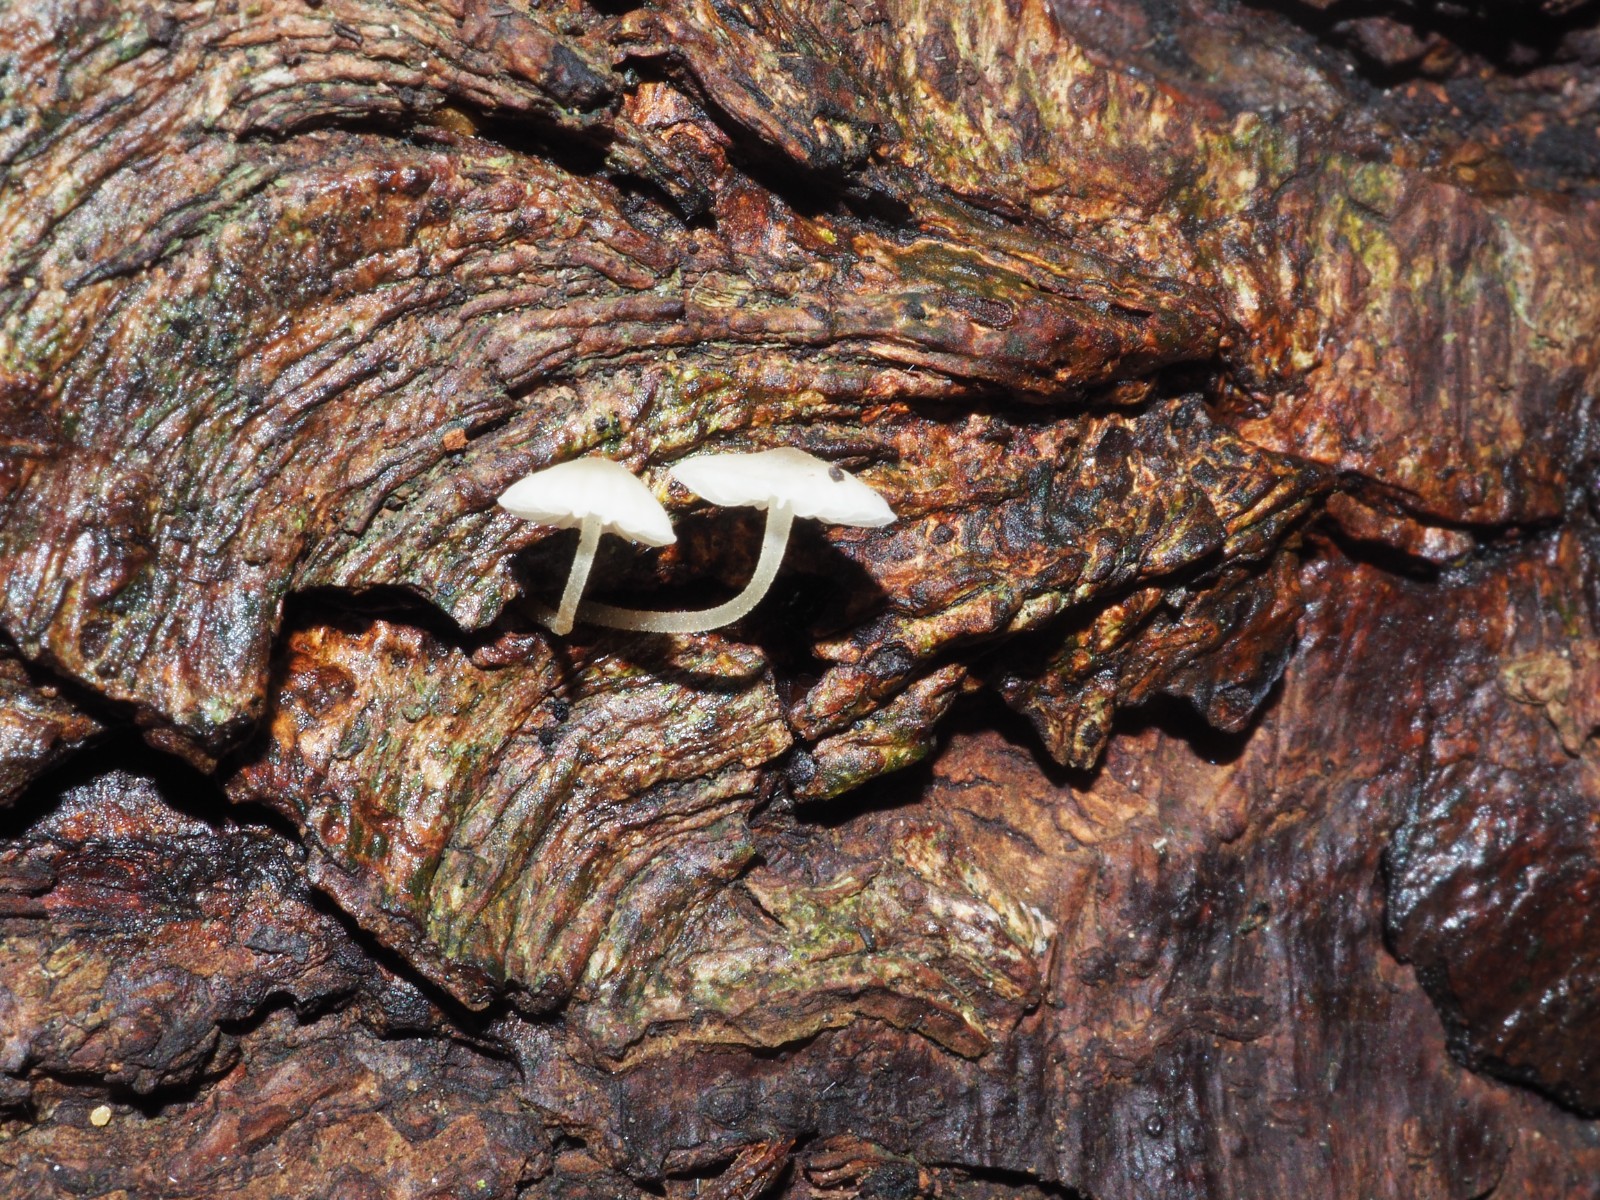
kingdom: Fungi
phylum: Basidiomycota
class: Agaricomycetes
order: Agaricales
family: Porotheleaceae
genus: Phloeomana
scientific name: Phloeomana hiemalis
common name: sen huesvamp
